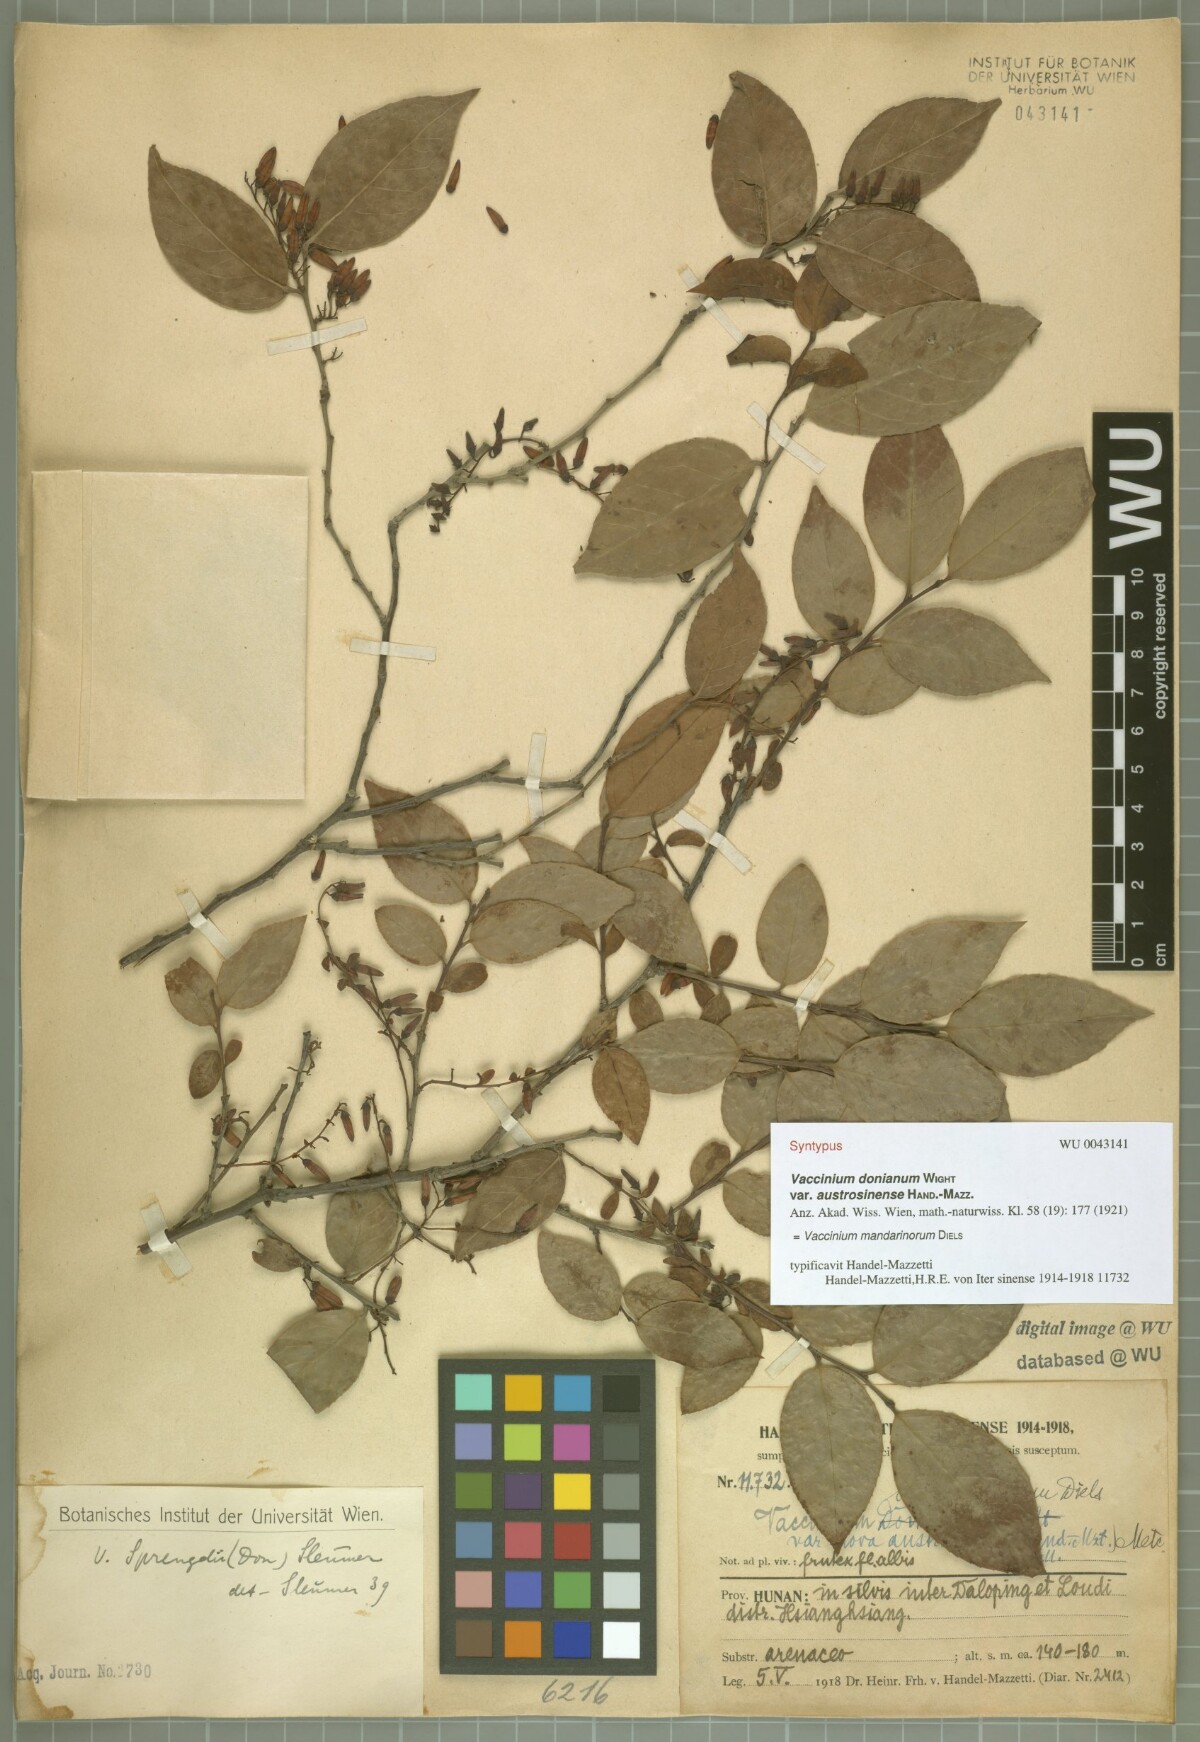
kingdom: Plantae
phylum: Tracheophyta
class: Magnoliopsida
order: Ericales
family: Ericaceae
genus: Vaccinium
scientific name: Vaccinium mandarinorum
